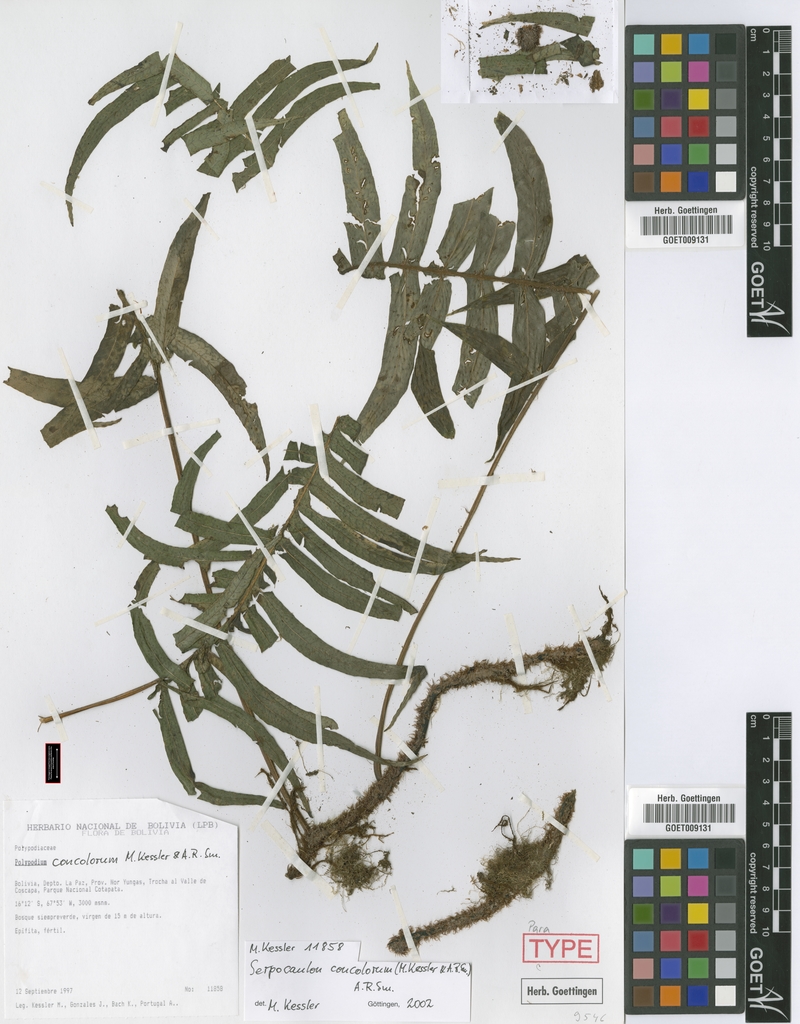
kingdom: Plantae
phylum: Tracheophyta
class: Polypodiopsida
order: Polypodiales
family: Polypodiaceae
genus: Serpocaulon
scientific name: Serpocaulon concolorum
